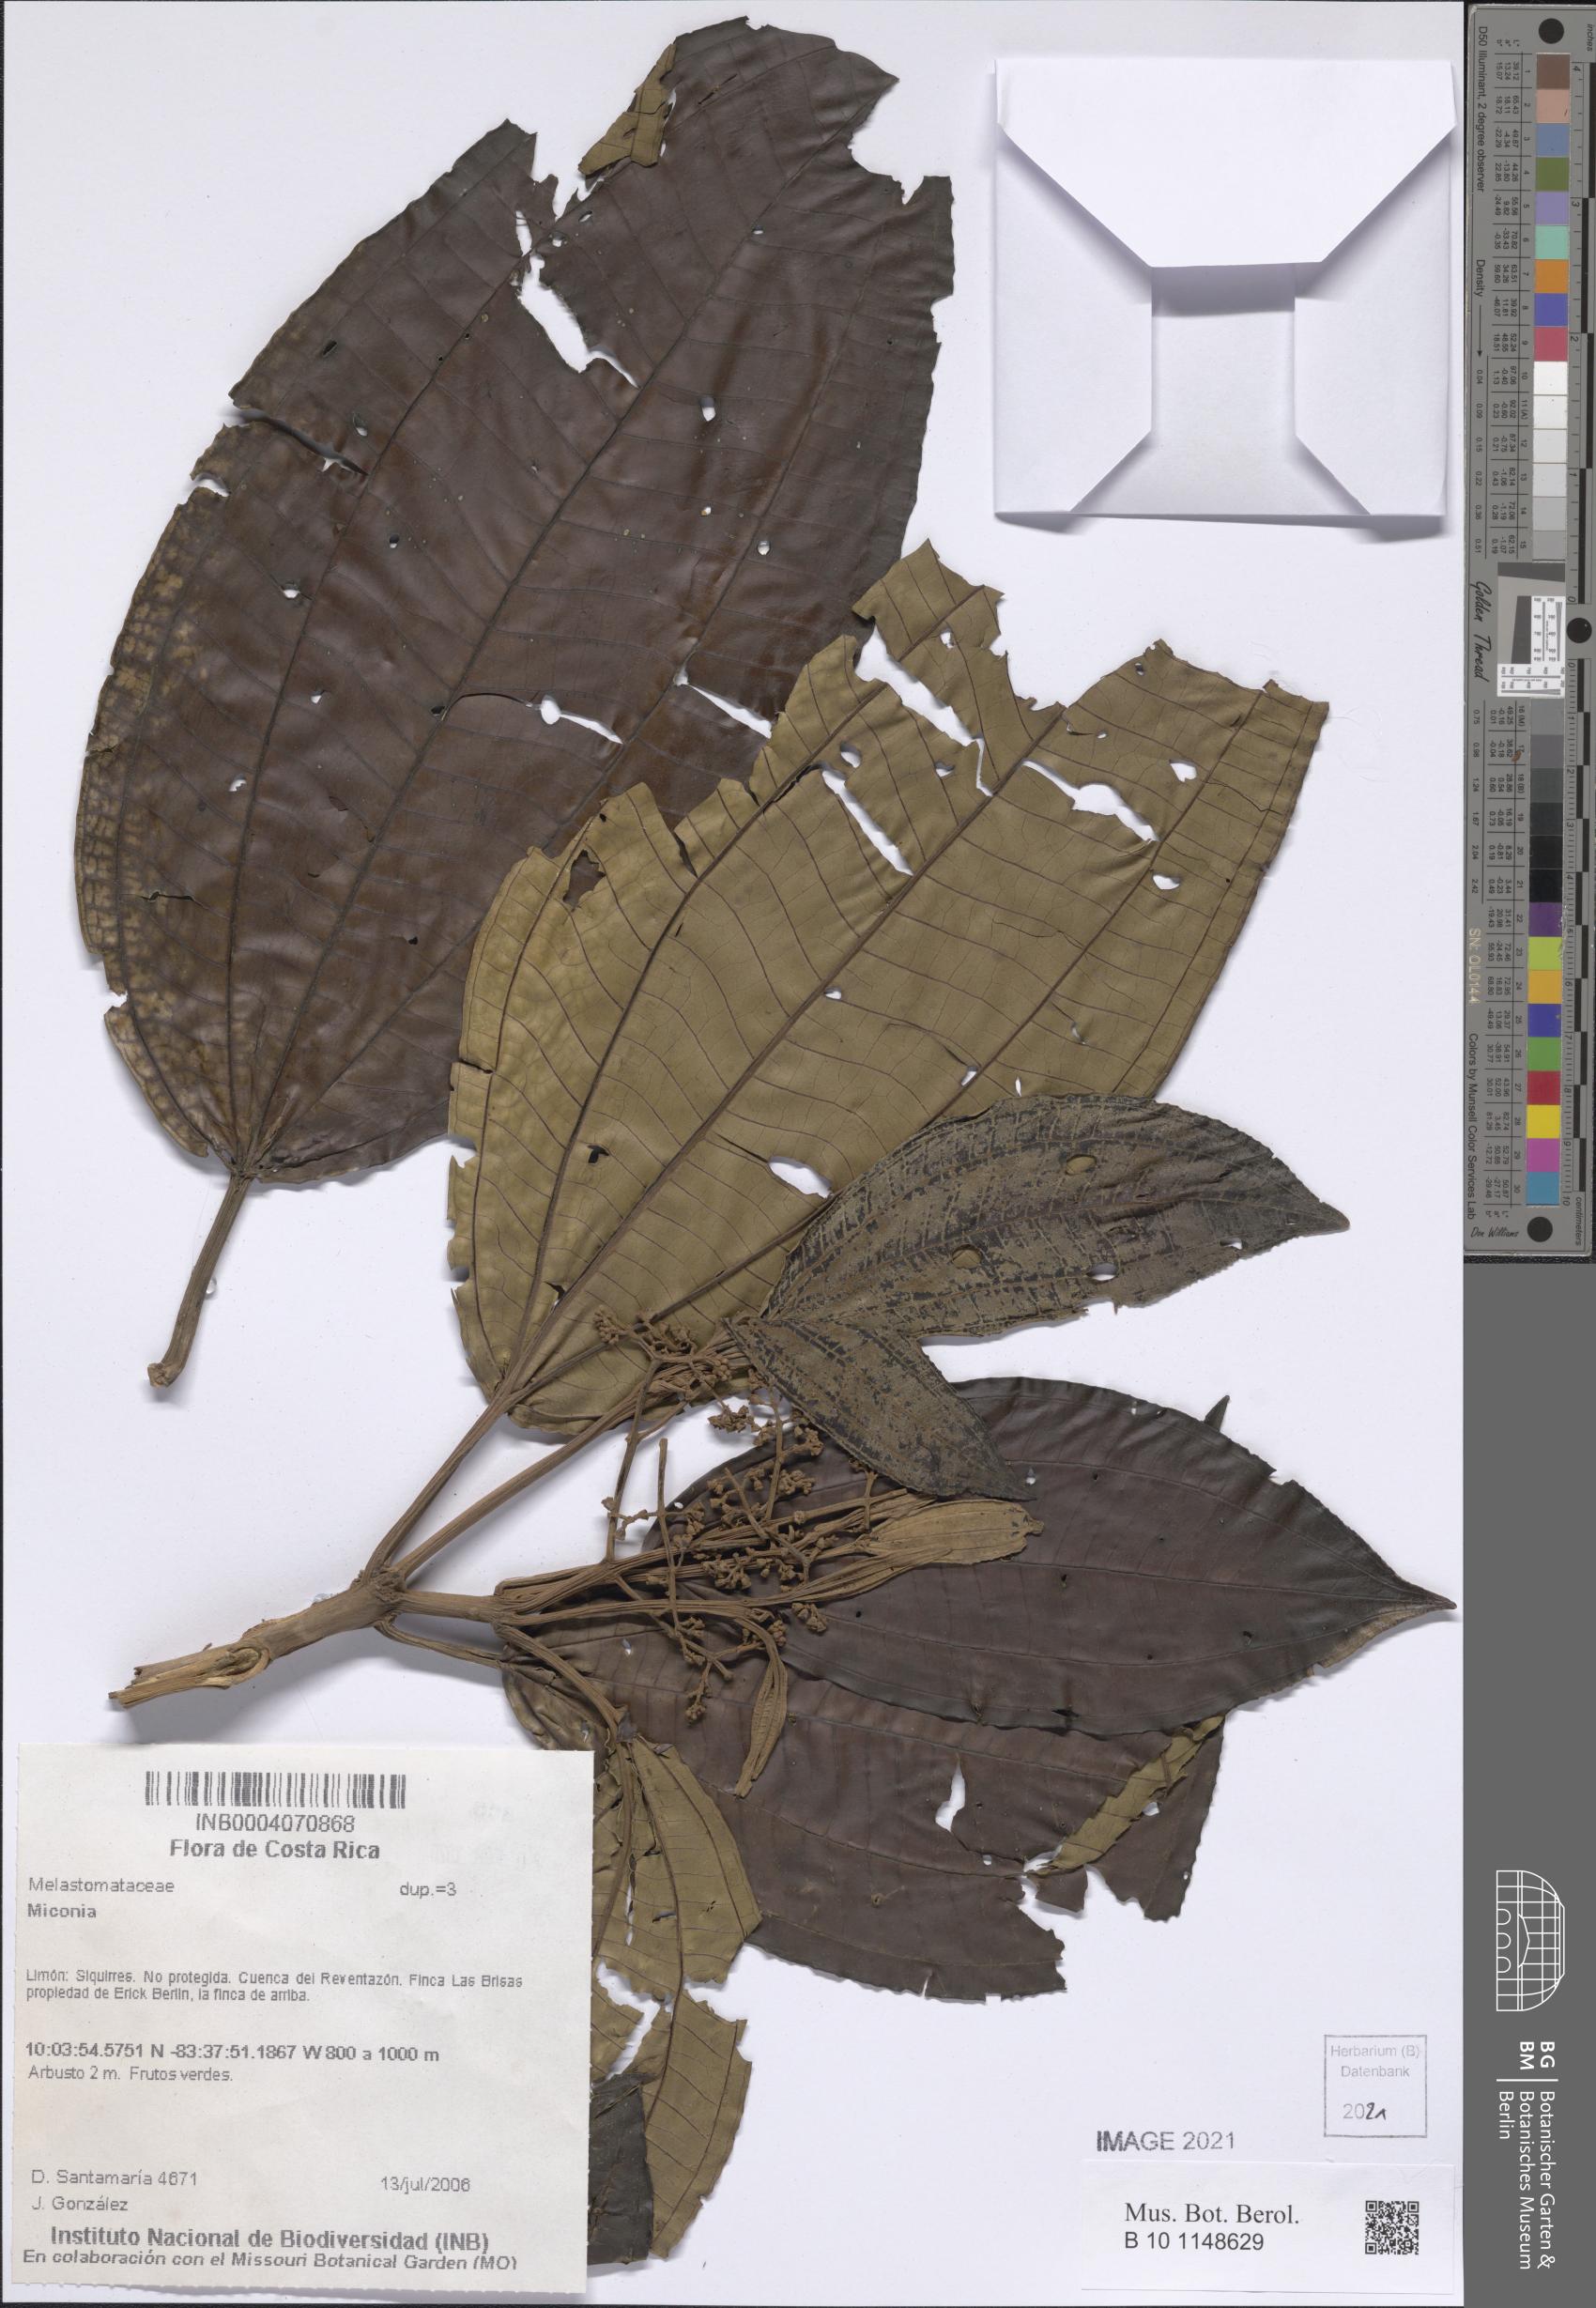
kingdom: Plantae
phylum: Tracheophyta
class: Magnoliopsida
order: Myrtales
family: Melastomataceae
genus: Miconia
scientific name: Miconia
